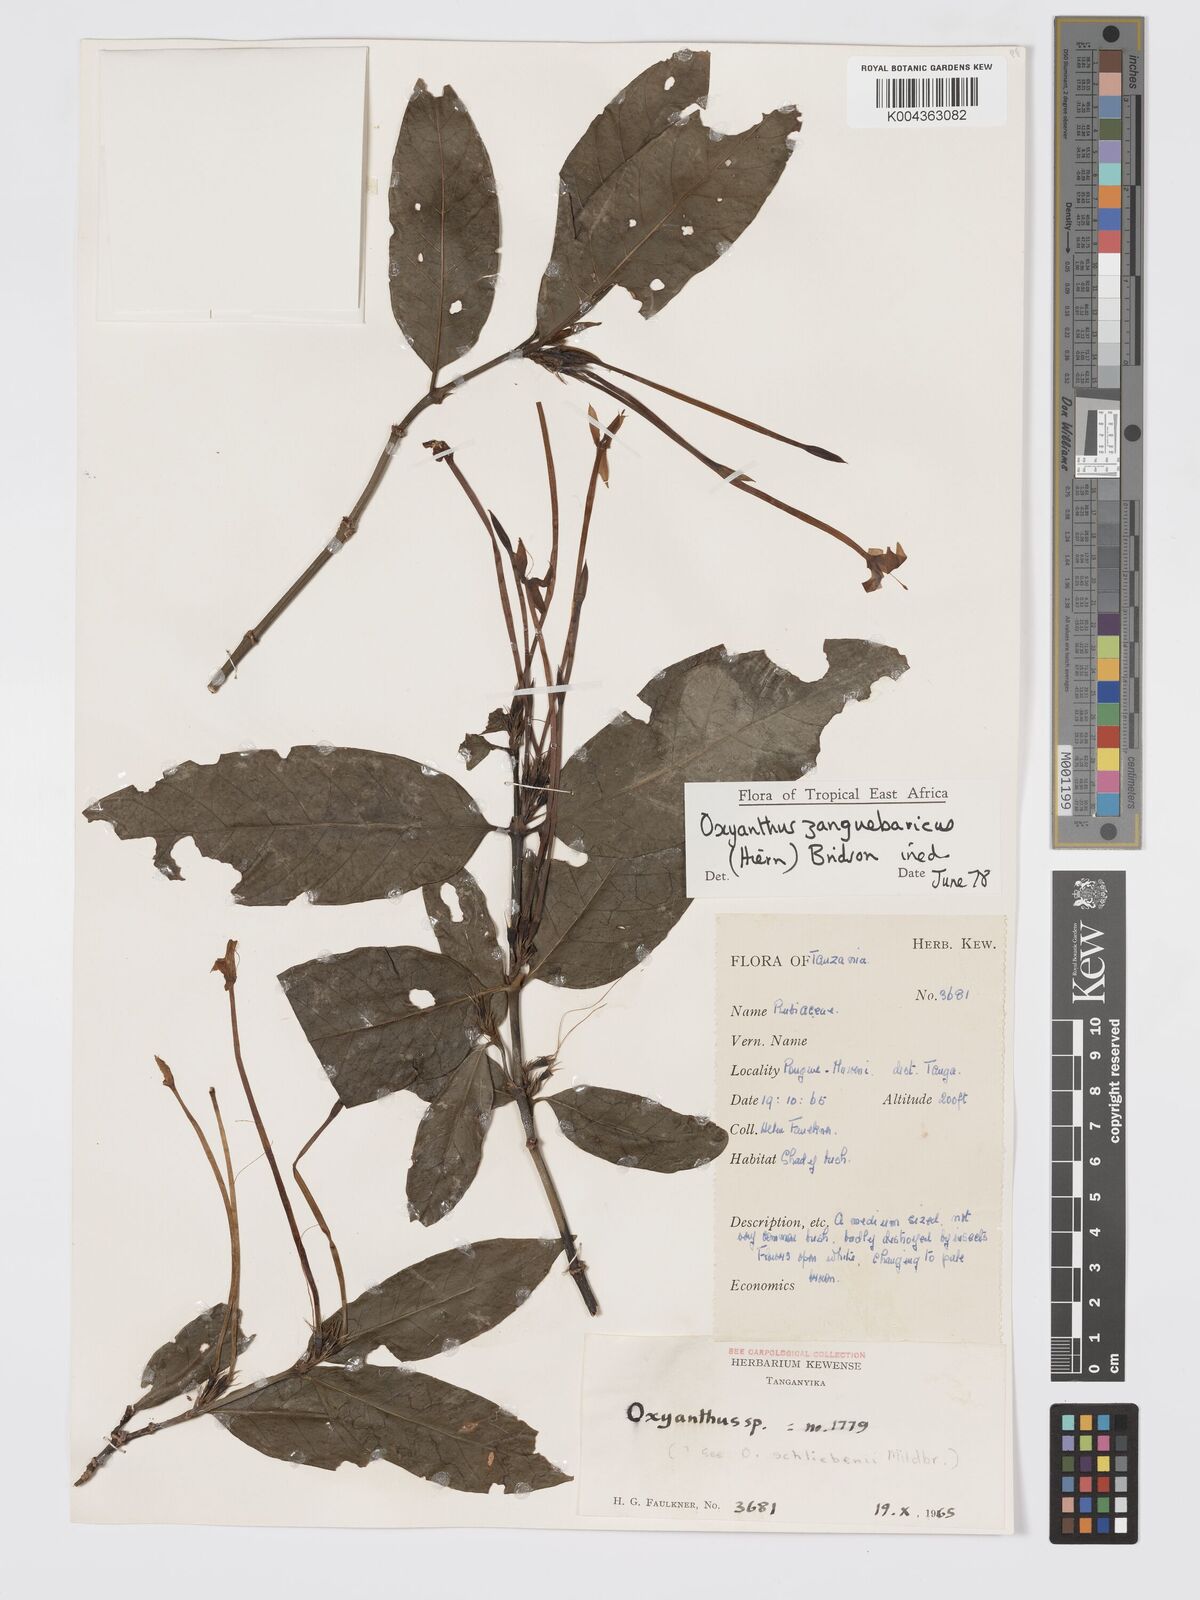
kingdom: Plantae
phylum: Tracheophyta
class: Magnoliopsida
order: Gentianales
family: Rubiaceae
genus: Oxyanthus
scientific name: Oxyanthus zanguebaricus
